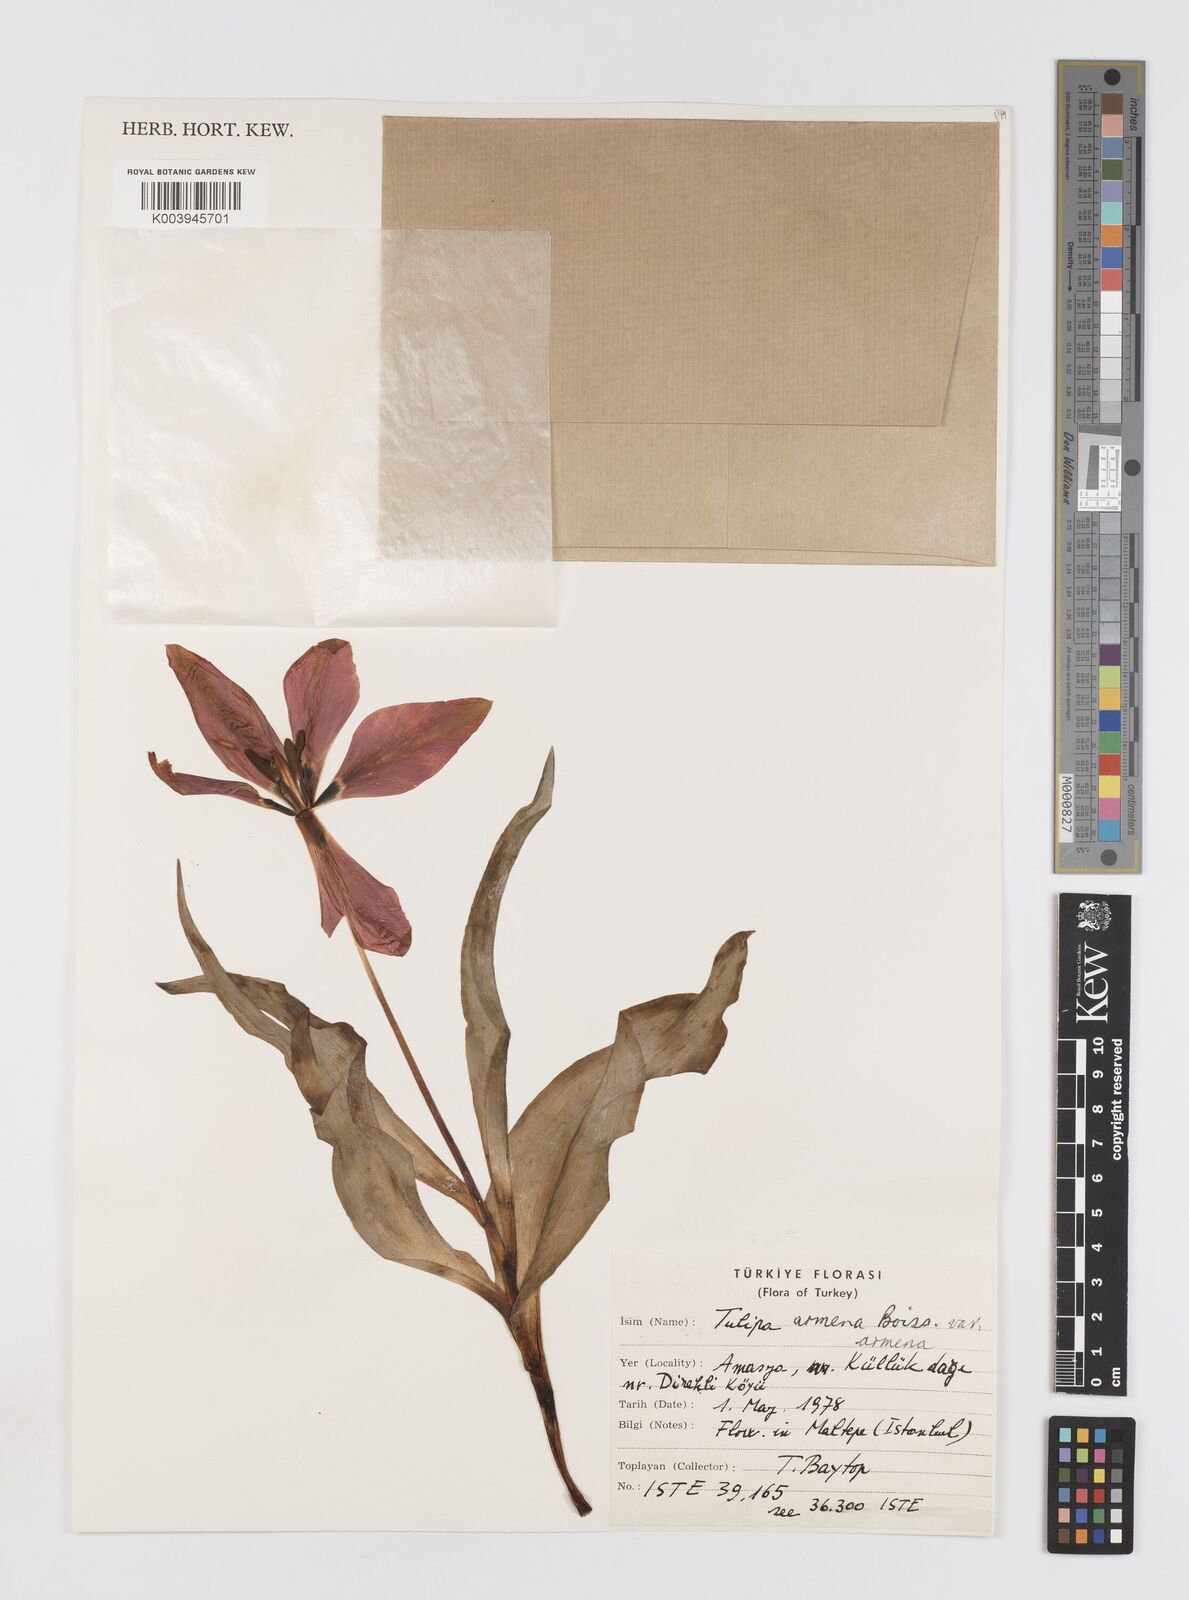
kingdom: Plantae
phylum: Tracheophyta
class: Liliopsida
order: Liliales
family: Liliaceae
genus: Tulipa
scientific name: Tulipa armena
